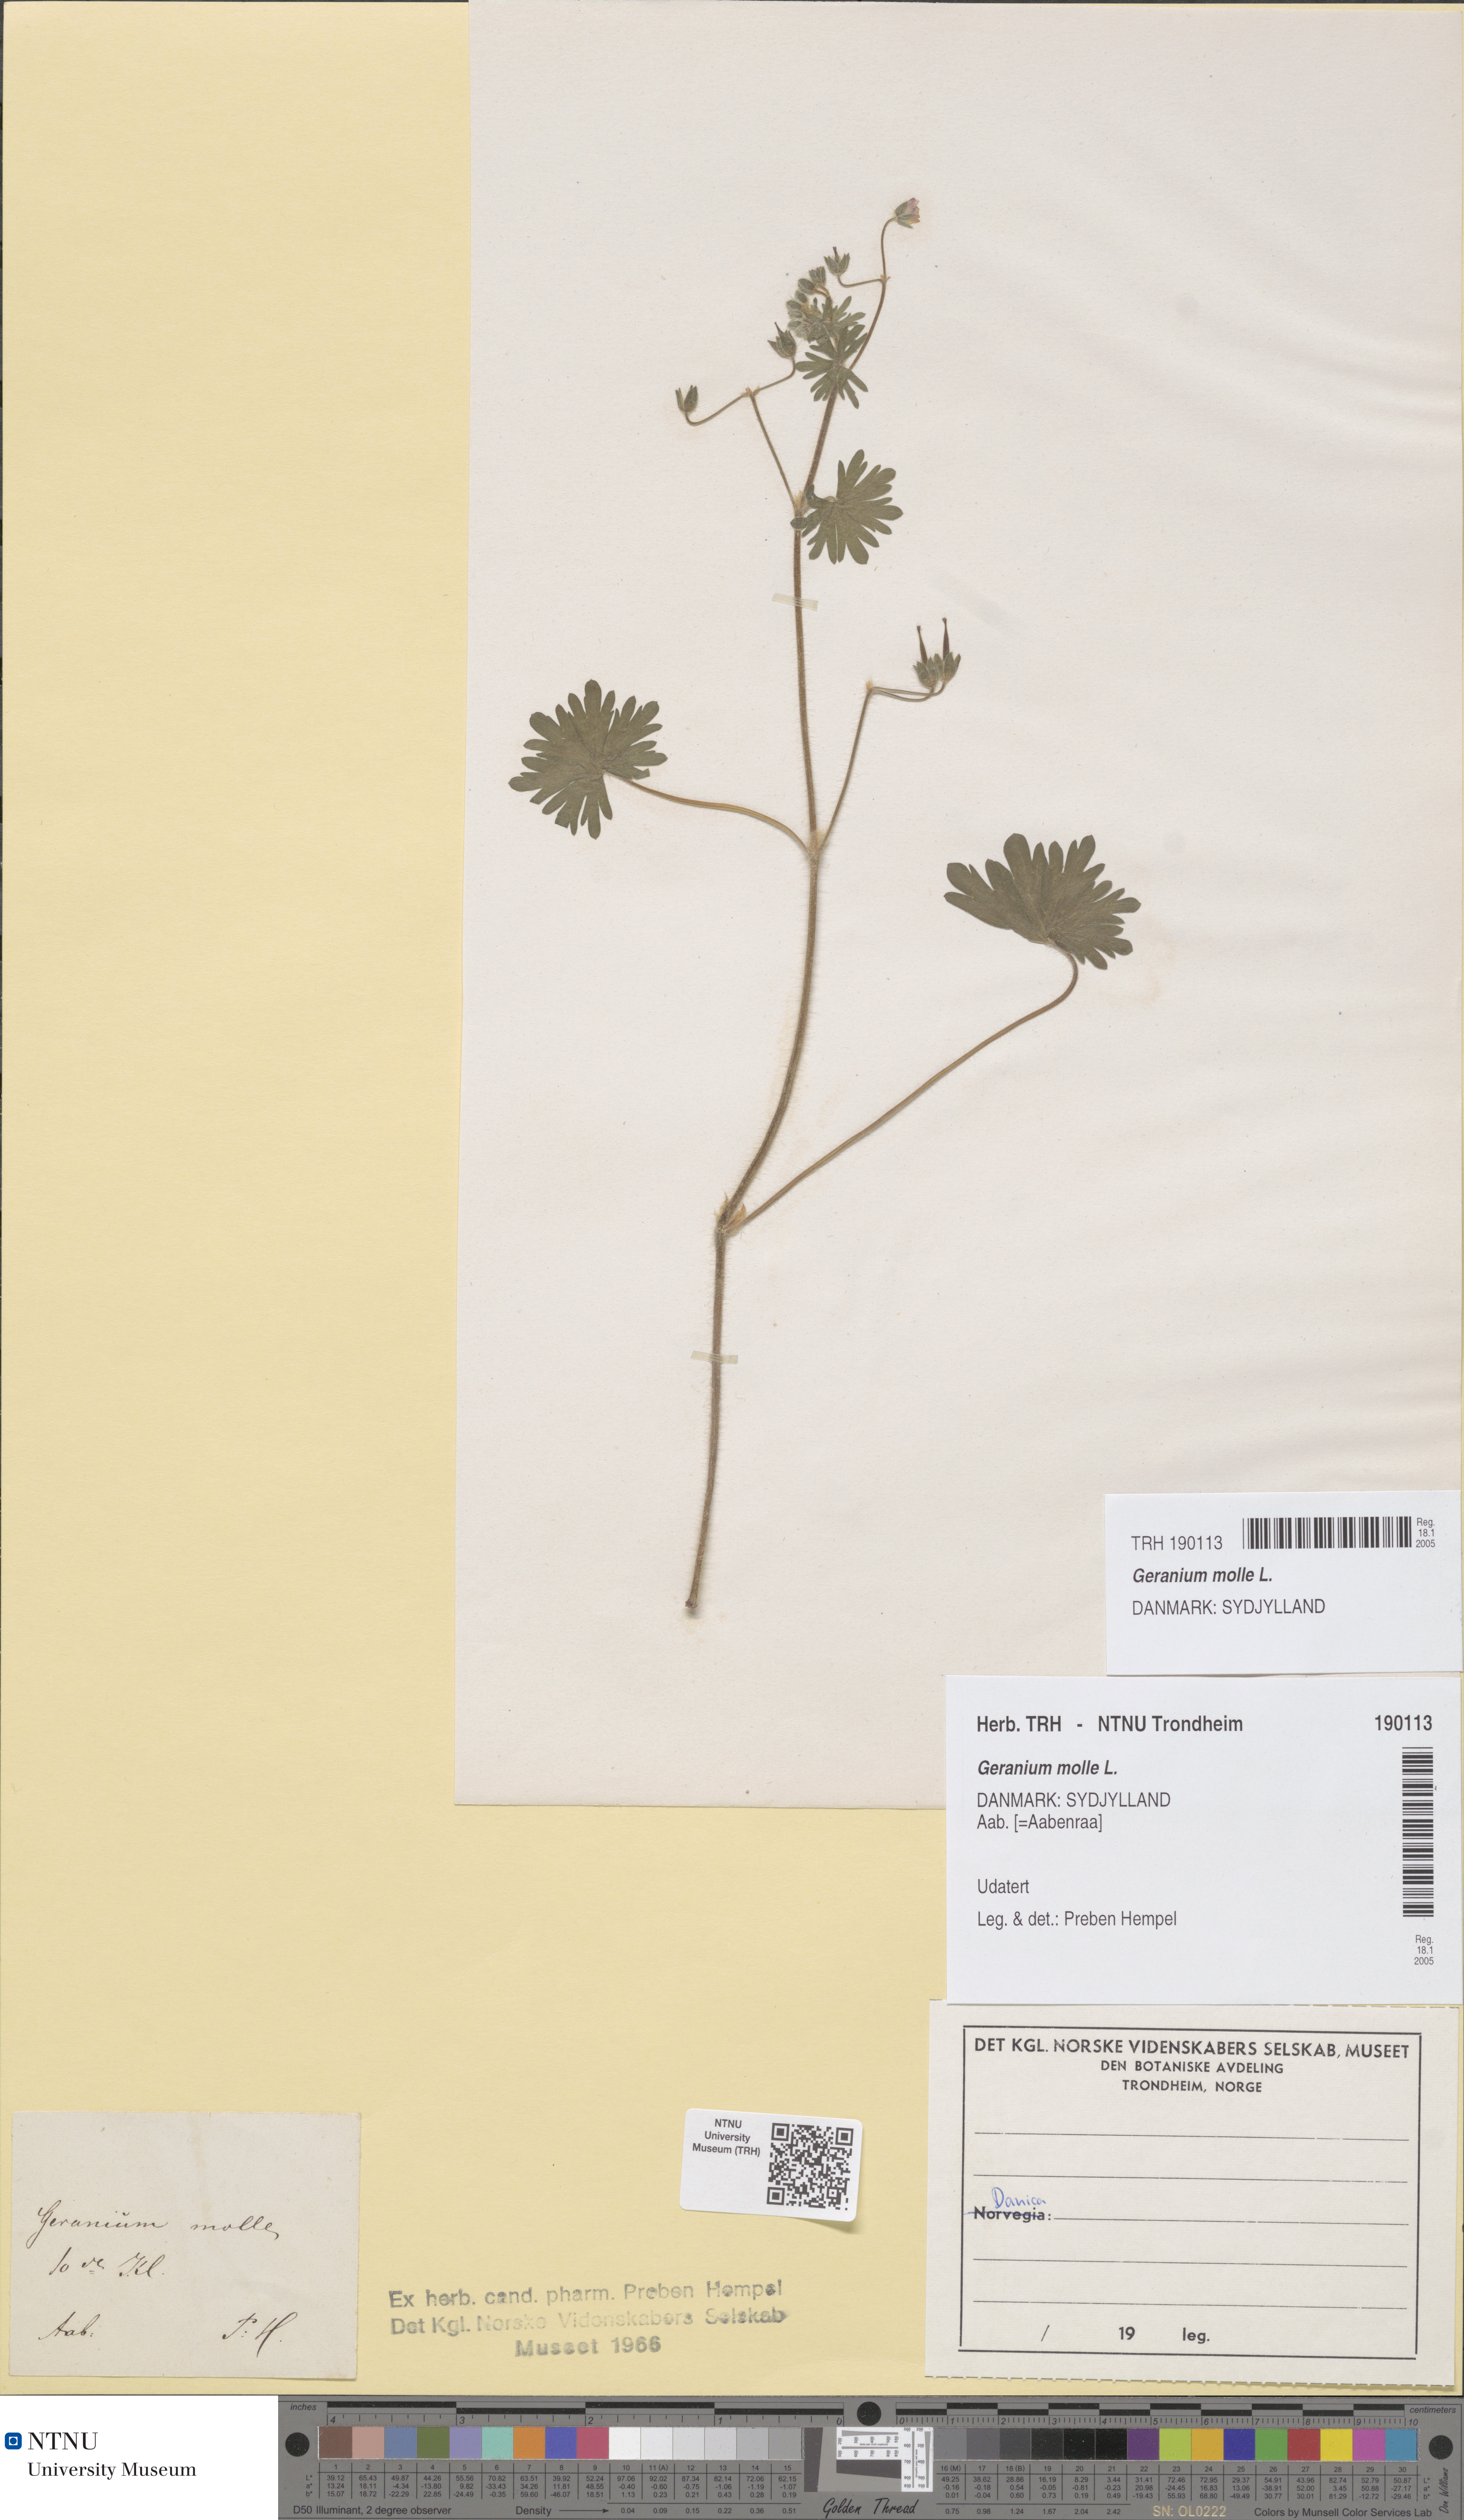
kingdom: Plantae
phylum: Tracheophyta
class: Magnoliopsida
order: Geraniales
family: Geraniaceae
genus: Geranium
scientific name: Geranium molle
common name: Dove's-foot crane's-bill
